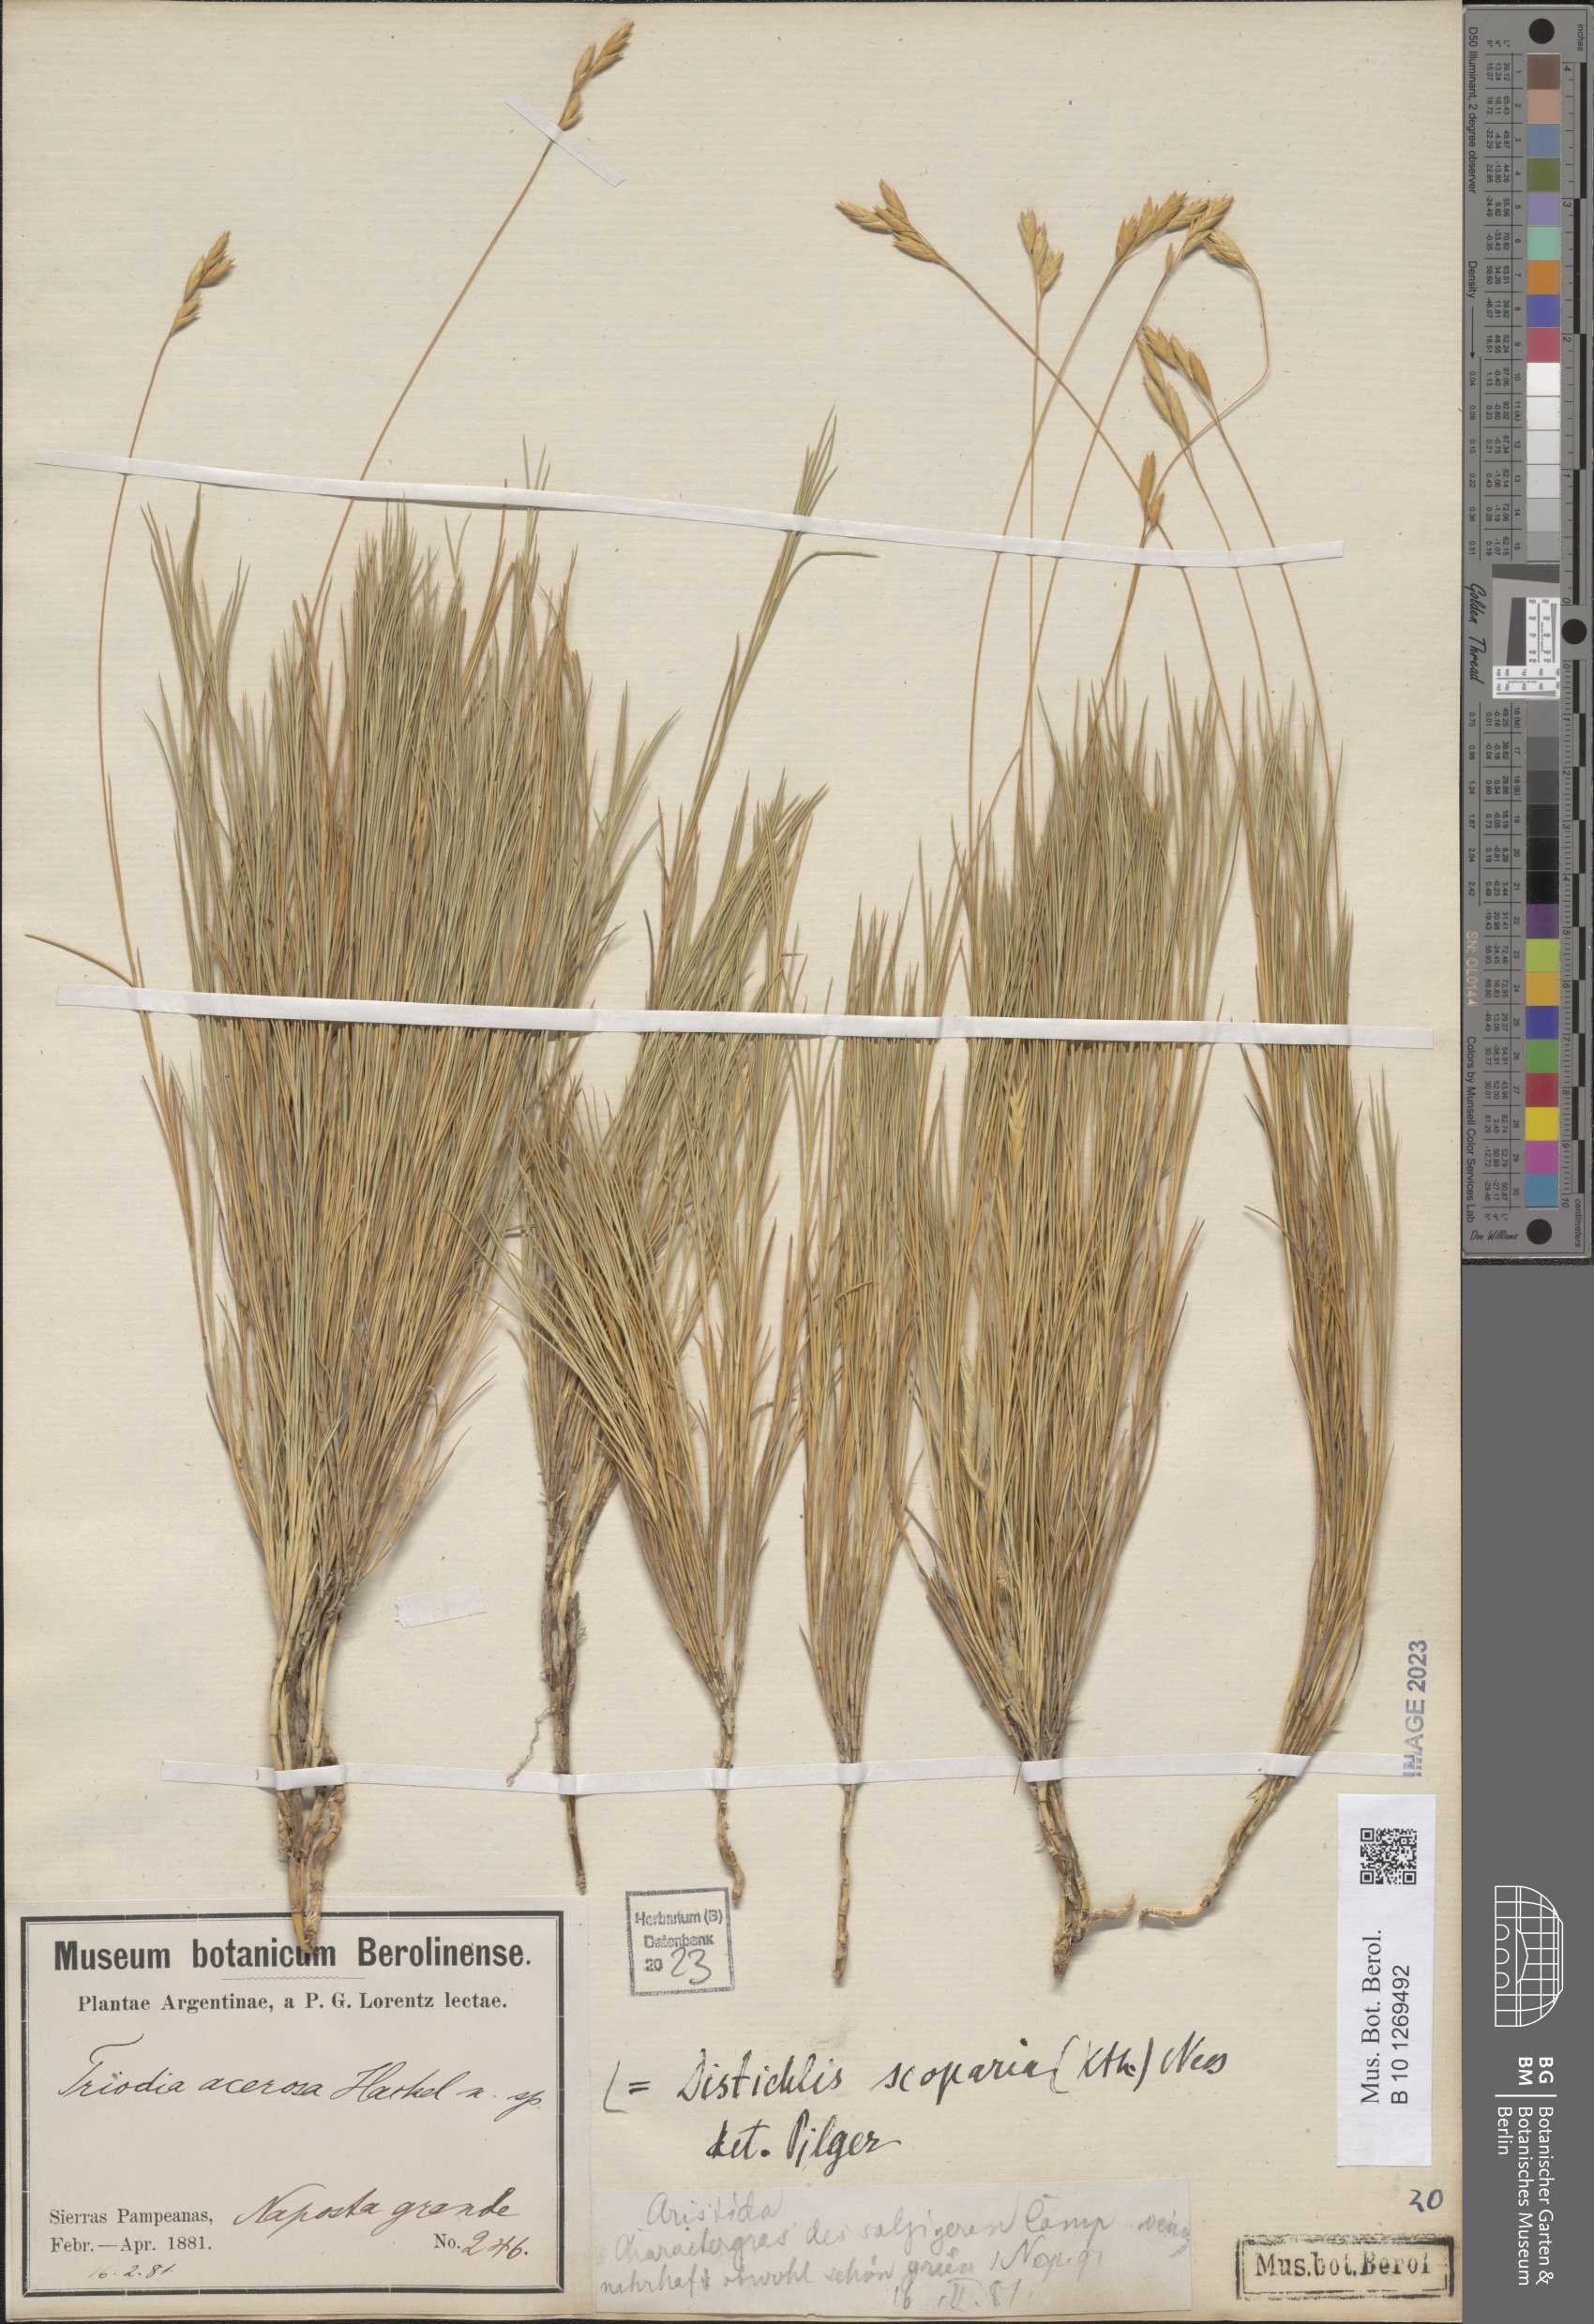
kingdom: Plantae
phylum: Tracheophyta
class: Liliopsida
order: Poales
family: Poaceae
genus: Distichlis
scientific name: Distichlis scoparia
